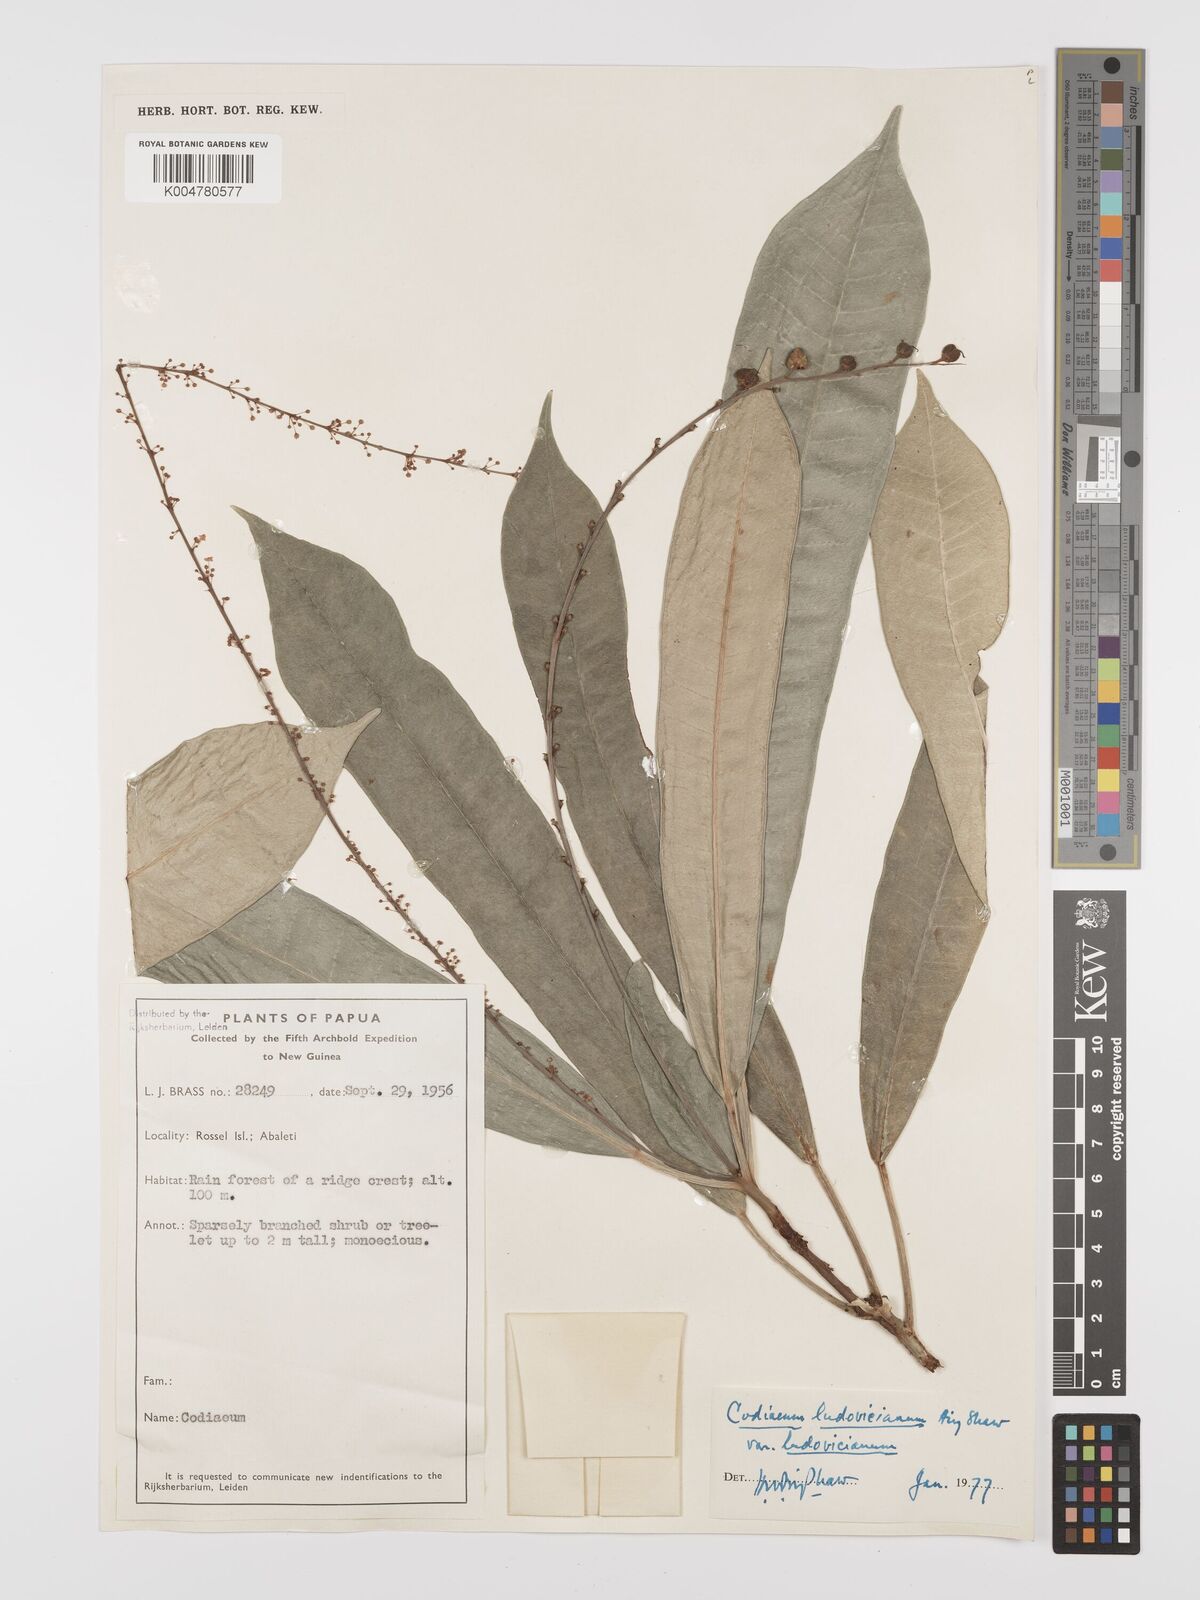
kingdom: Plantae
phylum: Tracheophyta
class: Magnoliopsida
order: Malpighiales
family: Euphorbiaceae
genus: Codiaeum
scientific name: Codiaeum ludovicianum
